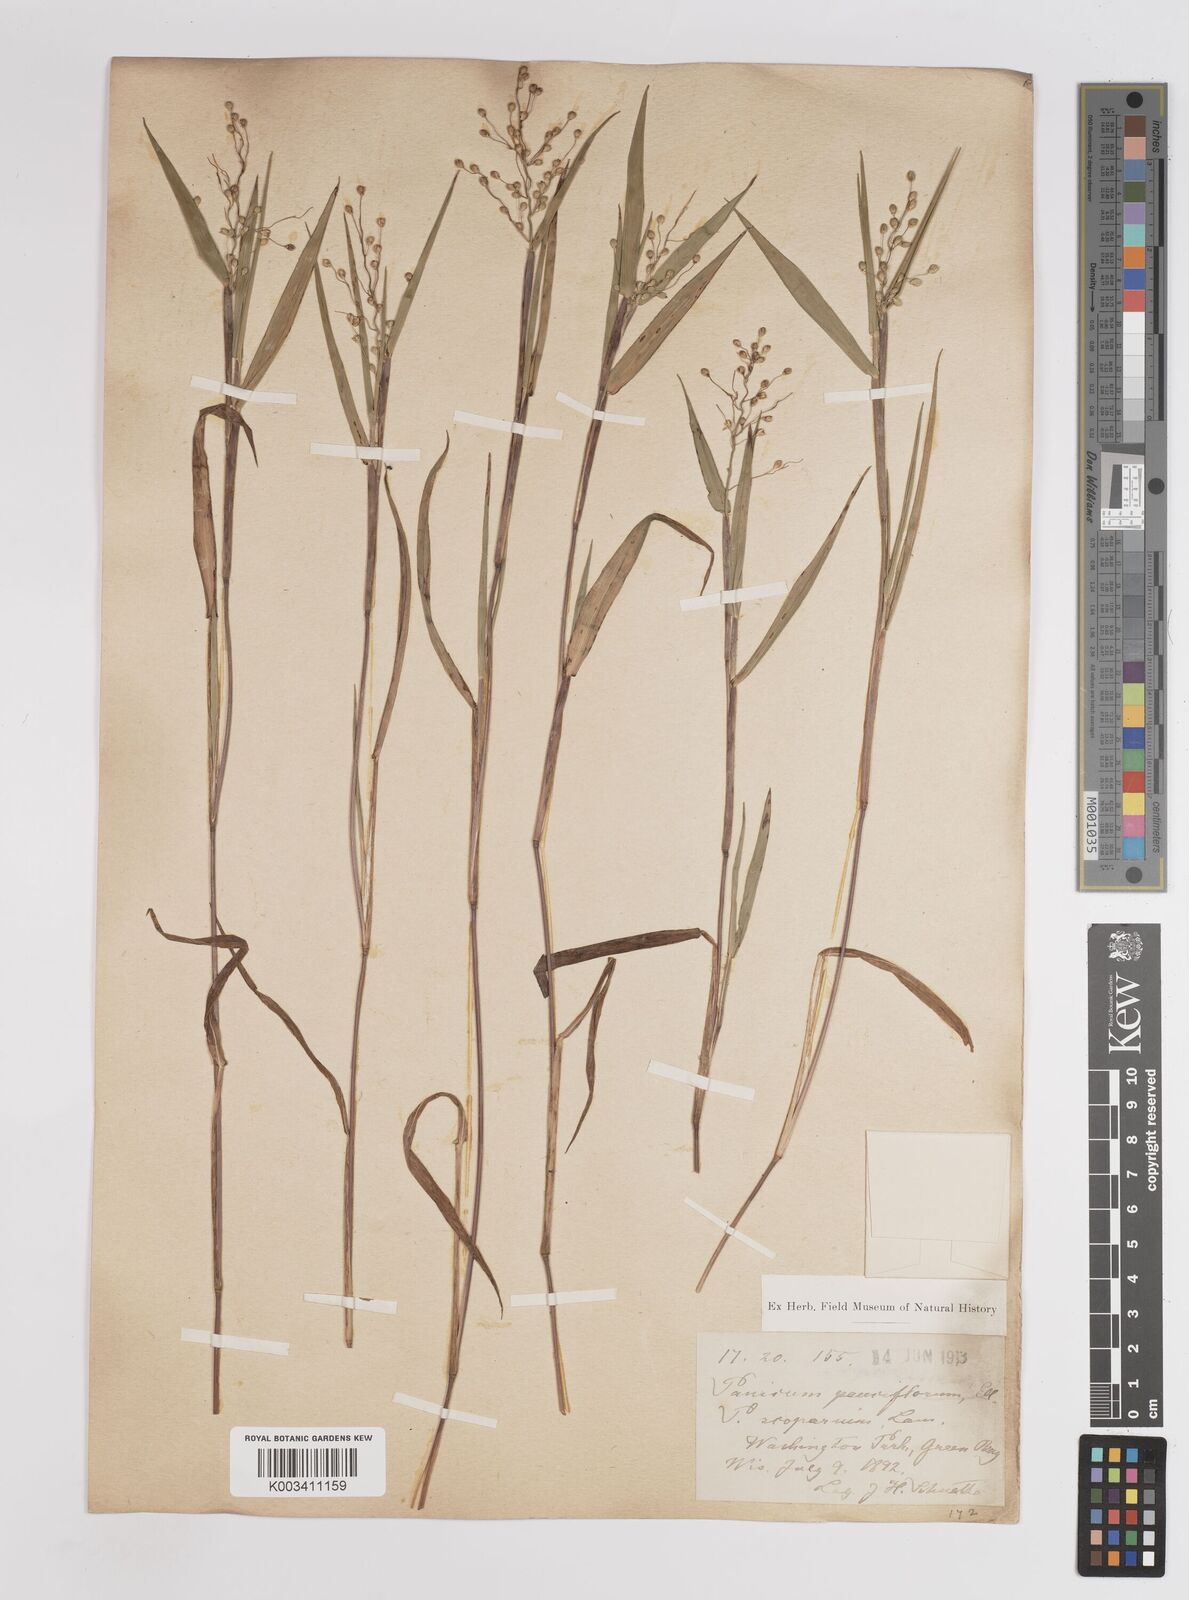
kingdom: Plantae
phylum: Tracheophyta
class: Liliopsida
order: Poales
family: Poaceae
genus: Dichanthelium
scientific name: Dichanthelium oligosanthes
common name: Few-anther obscuregrass
